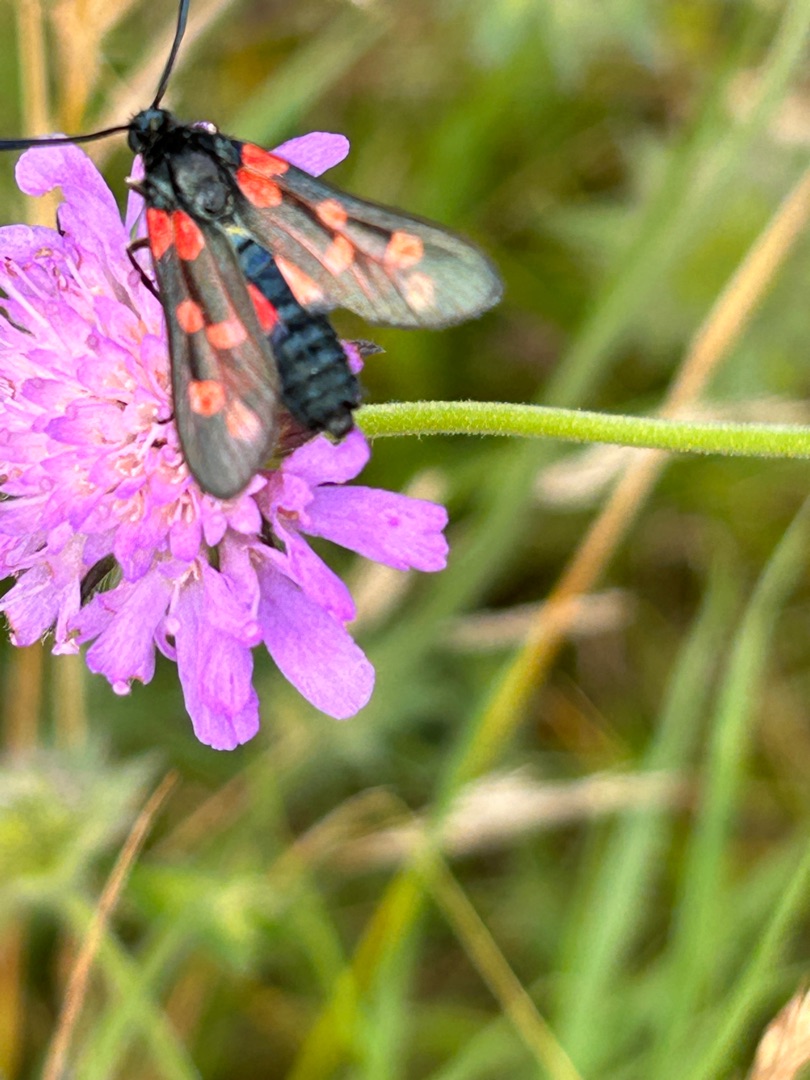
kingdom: Animalia
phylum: Arthropoda
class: Insecta
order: Lepidoptera
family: Zygaenidae
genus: Zygaena
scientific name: Zygaena filipendulae
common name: Seksplettet køllesværmer
